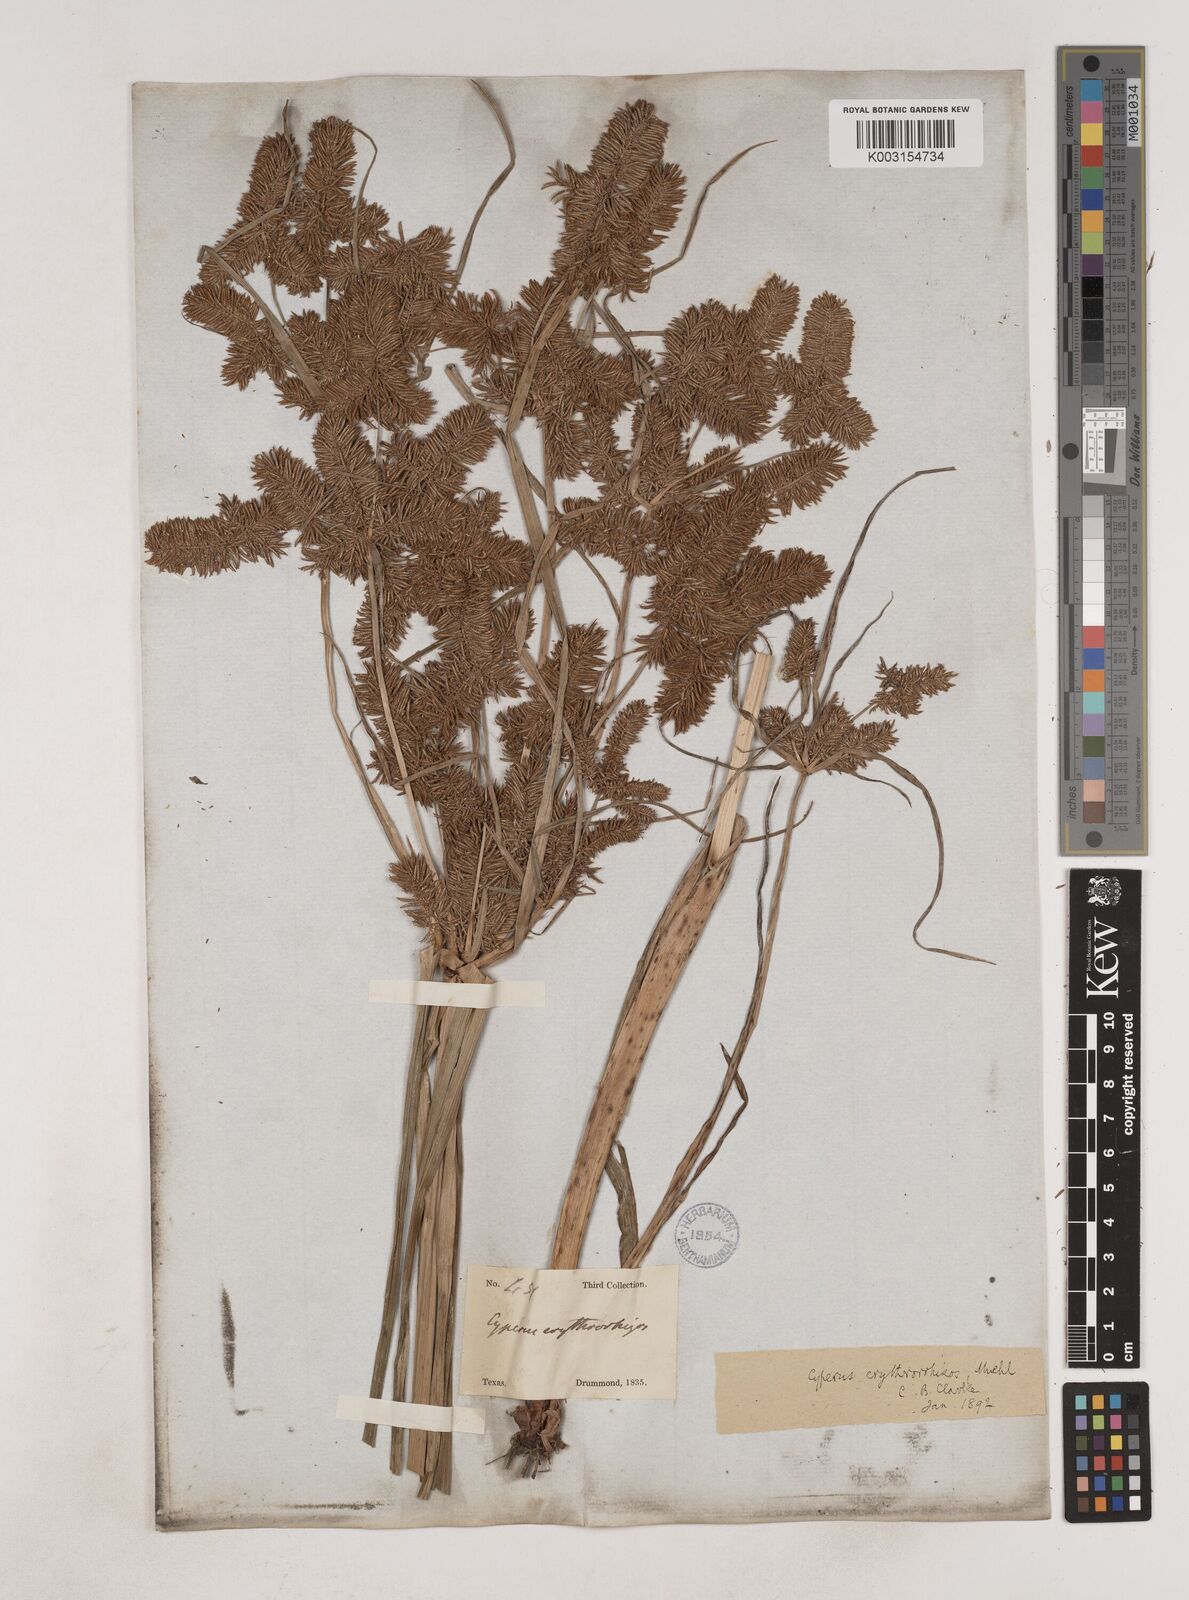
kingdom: Plantae
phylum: Tracheophyta
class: Liliopsida
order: Poales
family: Cyperaceae
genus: Cyperus
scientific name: Cyperus erythrorhizos
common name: Red-root flat sedge
